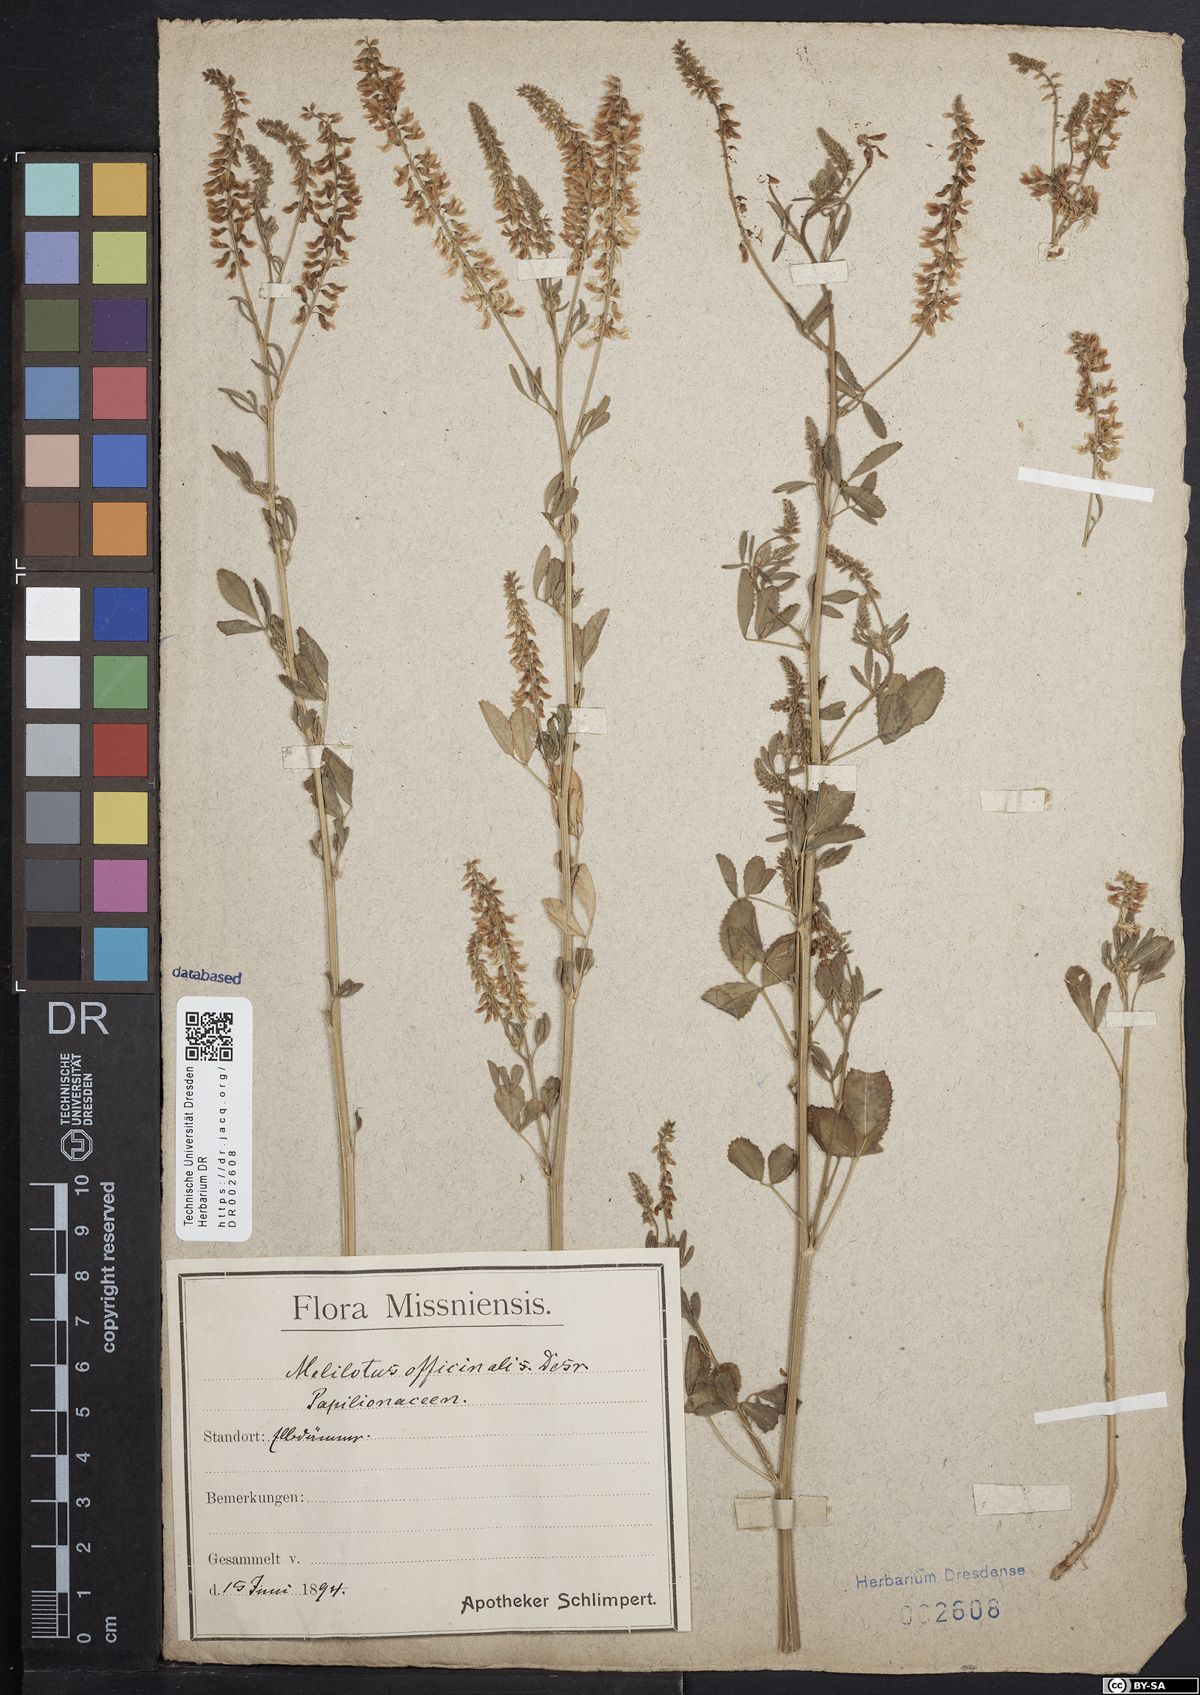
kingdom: Plantae
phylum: Tracheophyta
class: Magnoliopsida
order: Fabales
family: Fabaceae
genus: Melilotus
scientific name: Melilotus officinalis
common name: Sweetclover
